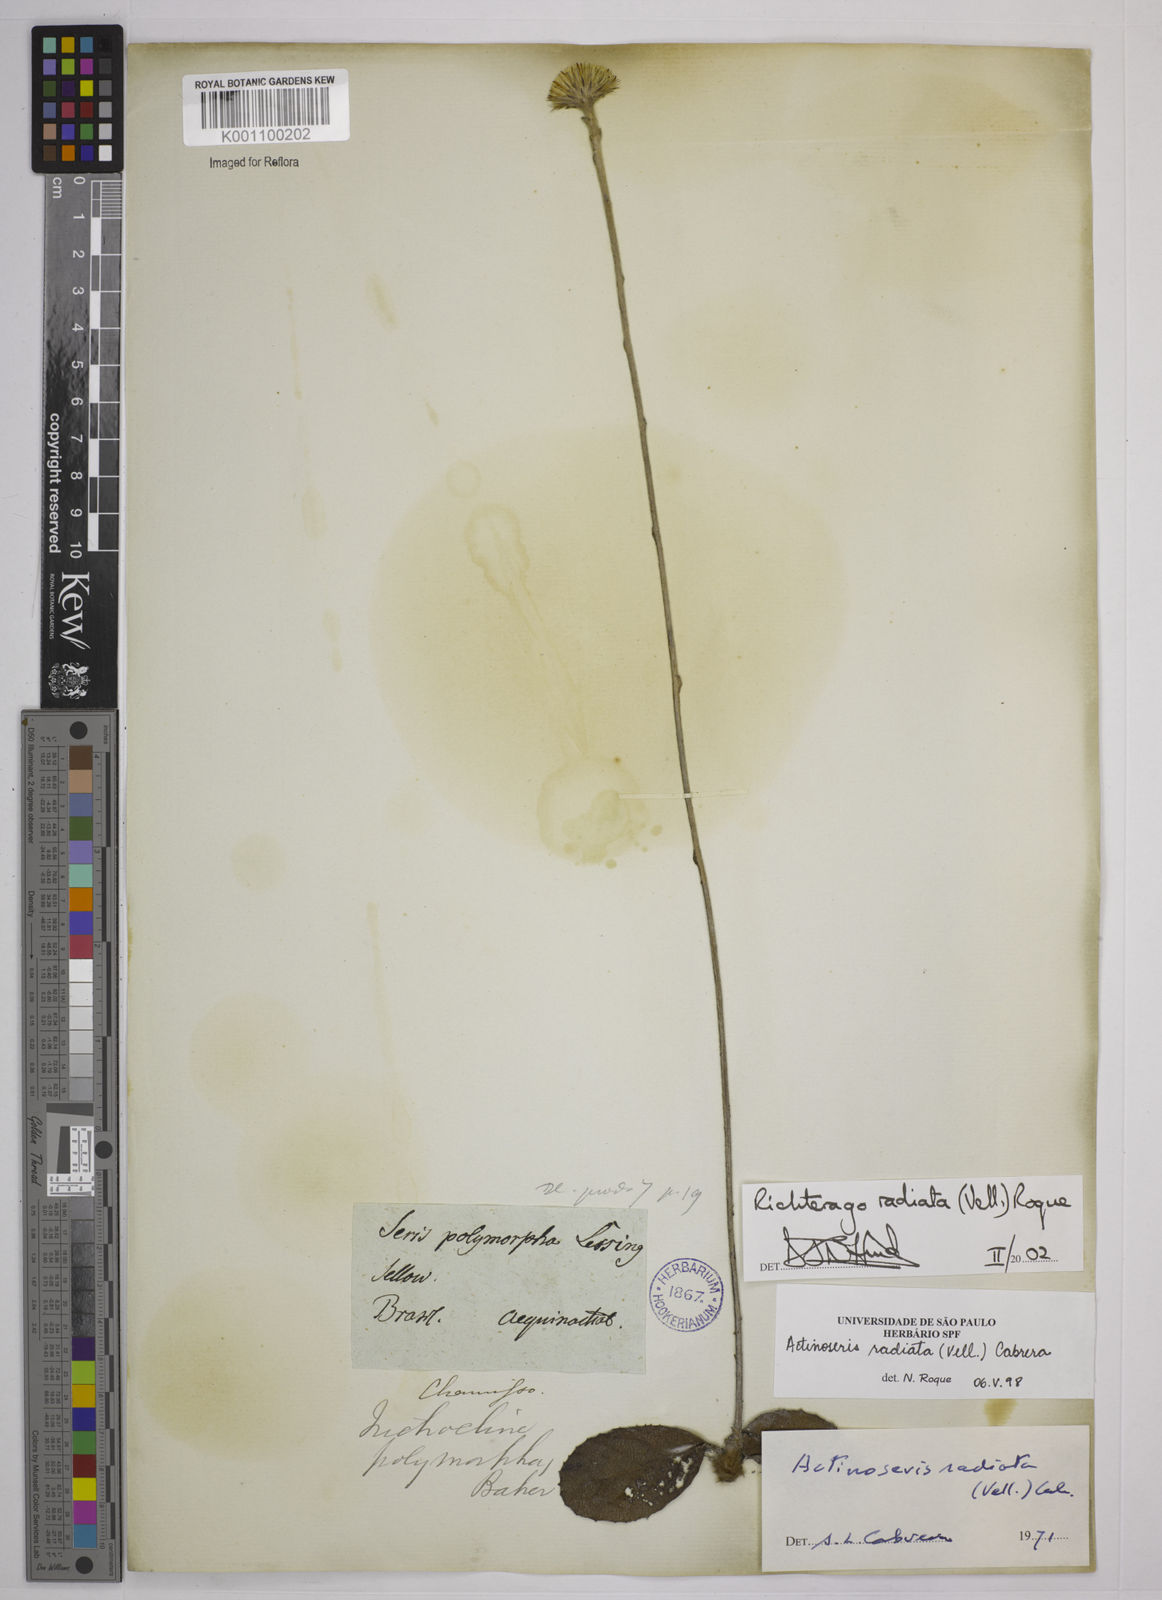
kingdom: Plantae
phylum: Tracheophyta
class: Magnoliopsida
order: Asterales
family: Asteraceae
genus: Richterago
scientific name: Richterago radiata
